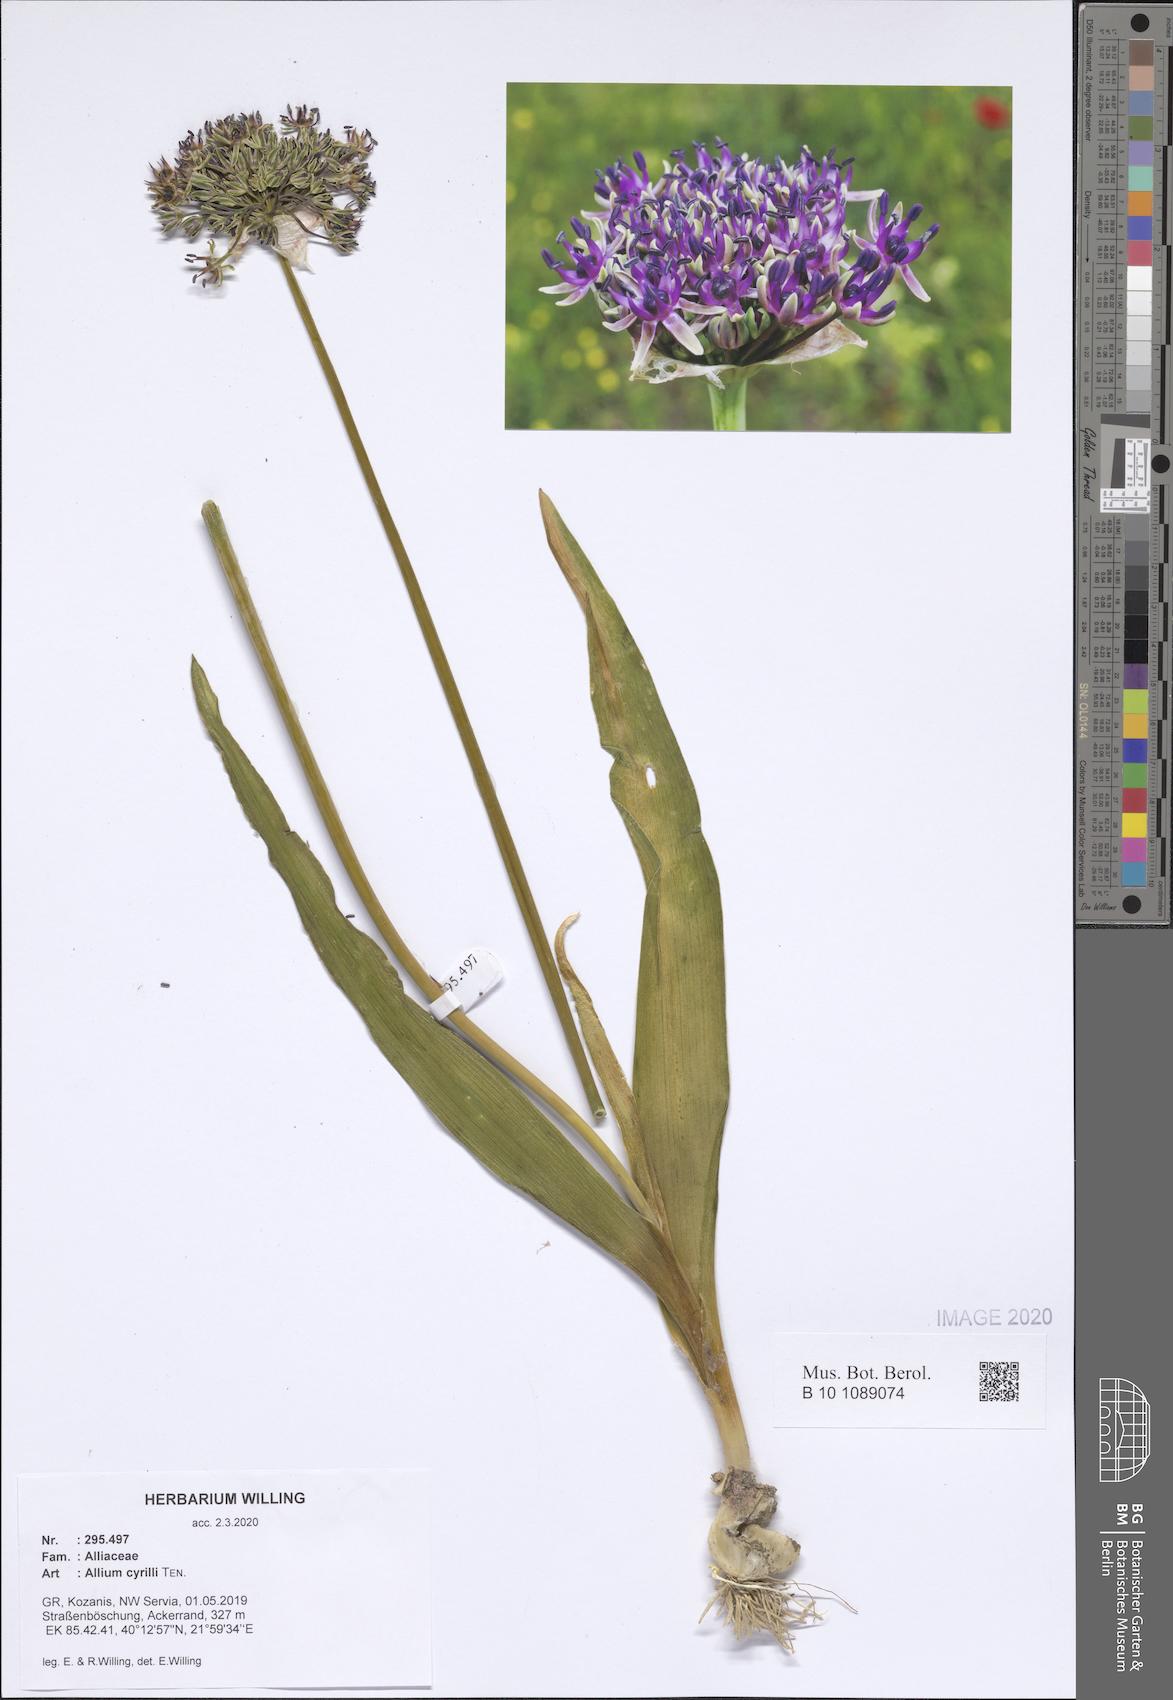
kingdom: Plantae
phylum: Tracheophyta
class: Liliopsida
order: Asparagales
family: Amaryllidaceae
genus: Allium
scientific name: Allium cyrilli
